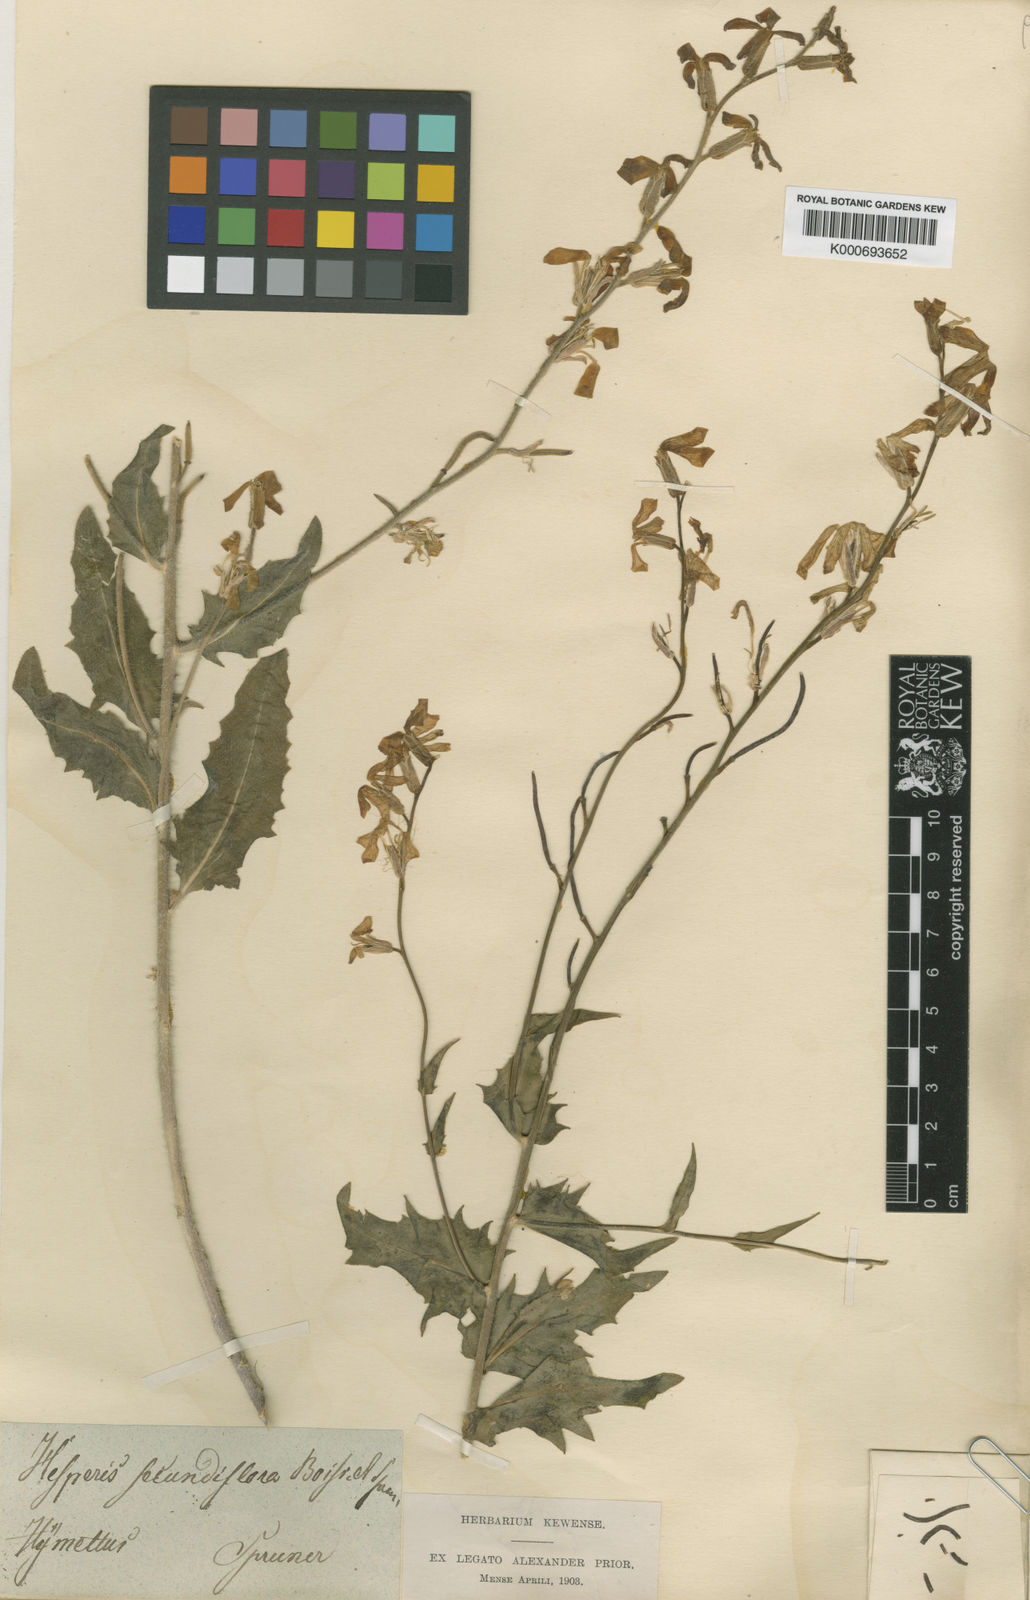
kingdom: Plantae
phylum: Tracheophyta
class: Magnoliopsida
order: Brassicales
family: Brassicaceae
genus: Hesperis
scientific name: Hesperis laciniata
